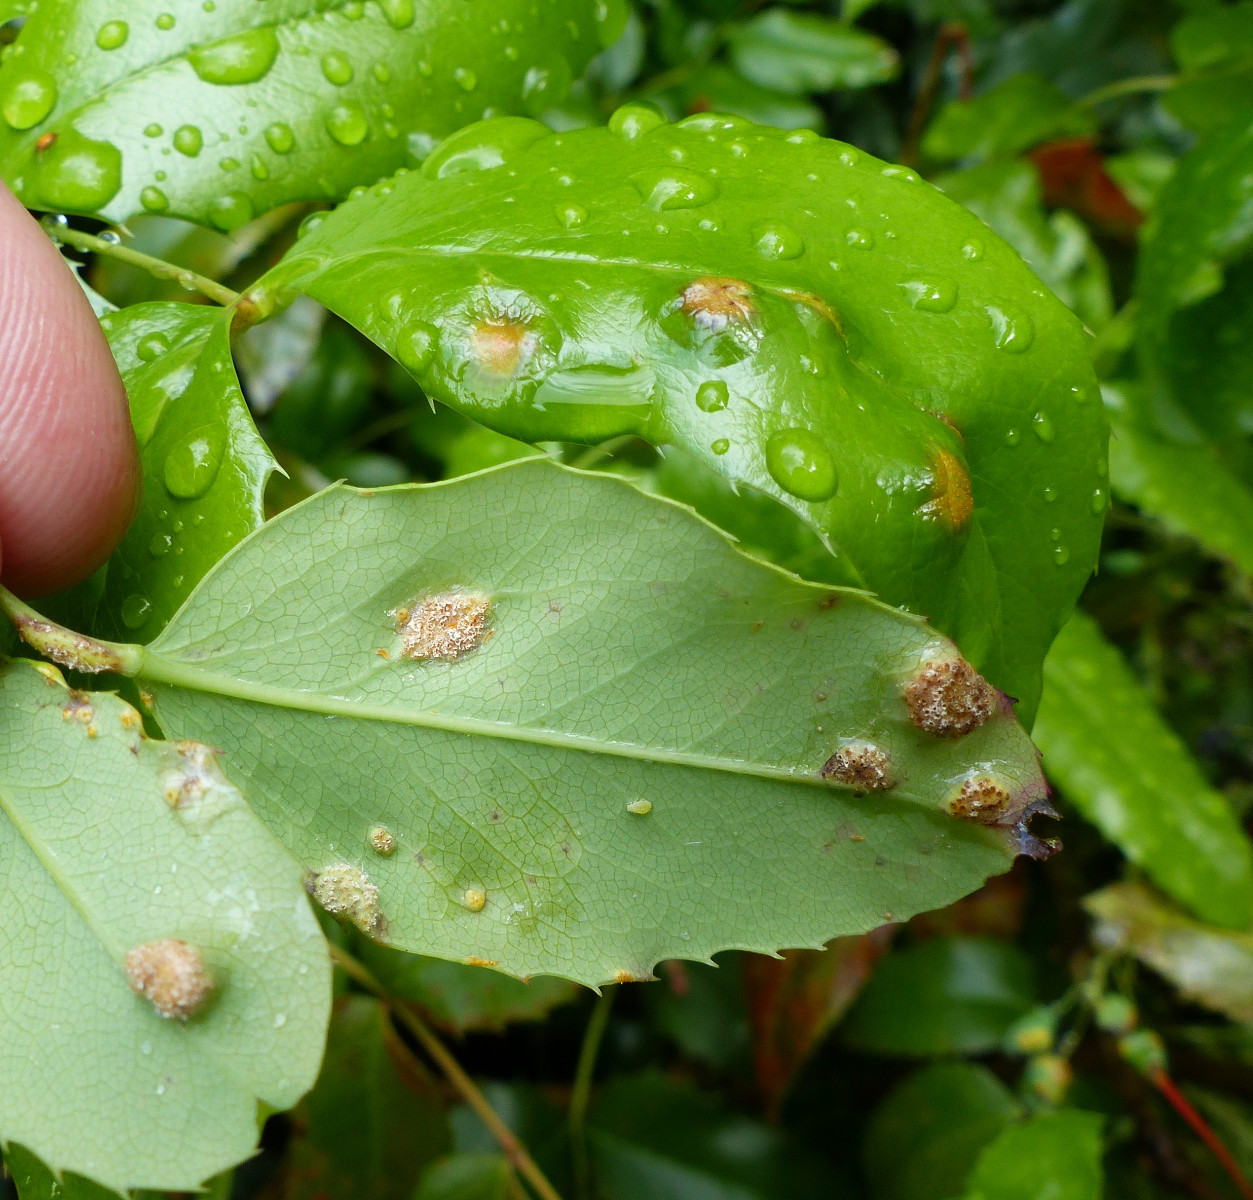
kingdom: Fungi
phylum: Basidiomycota
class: Pucciniomycetes
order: Pucciniales
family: Pucciniaceae
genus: Puccinia
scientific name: Puccinia graminis
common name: græssernes tvecellerust
